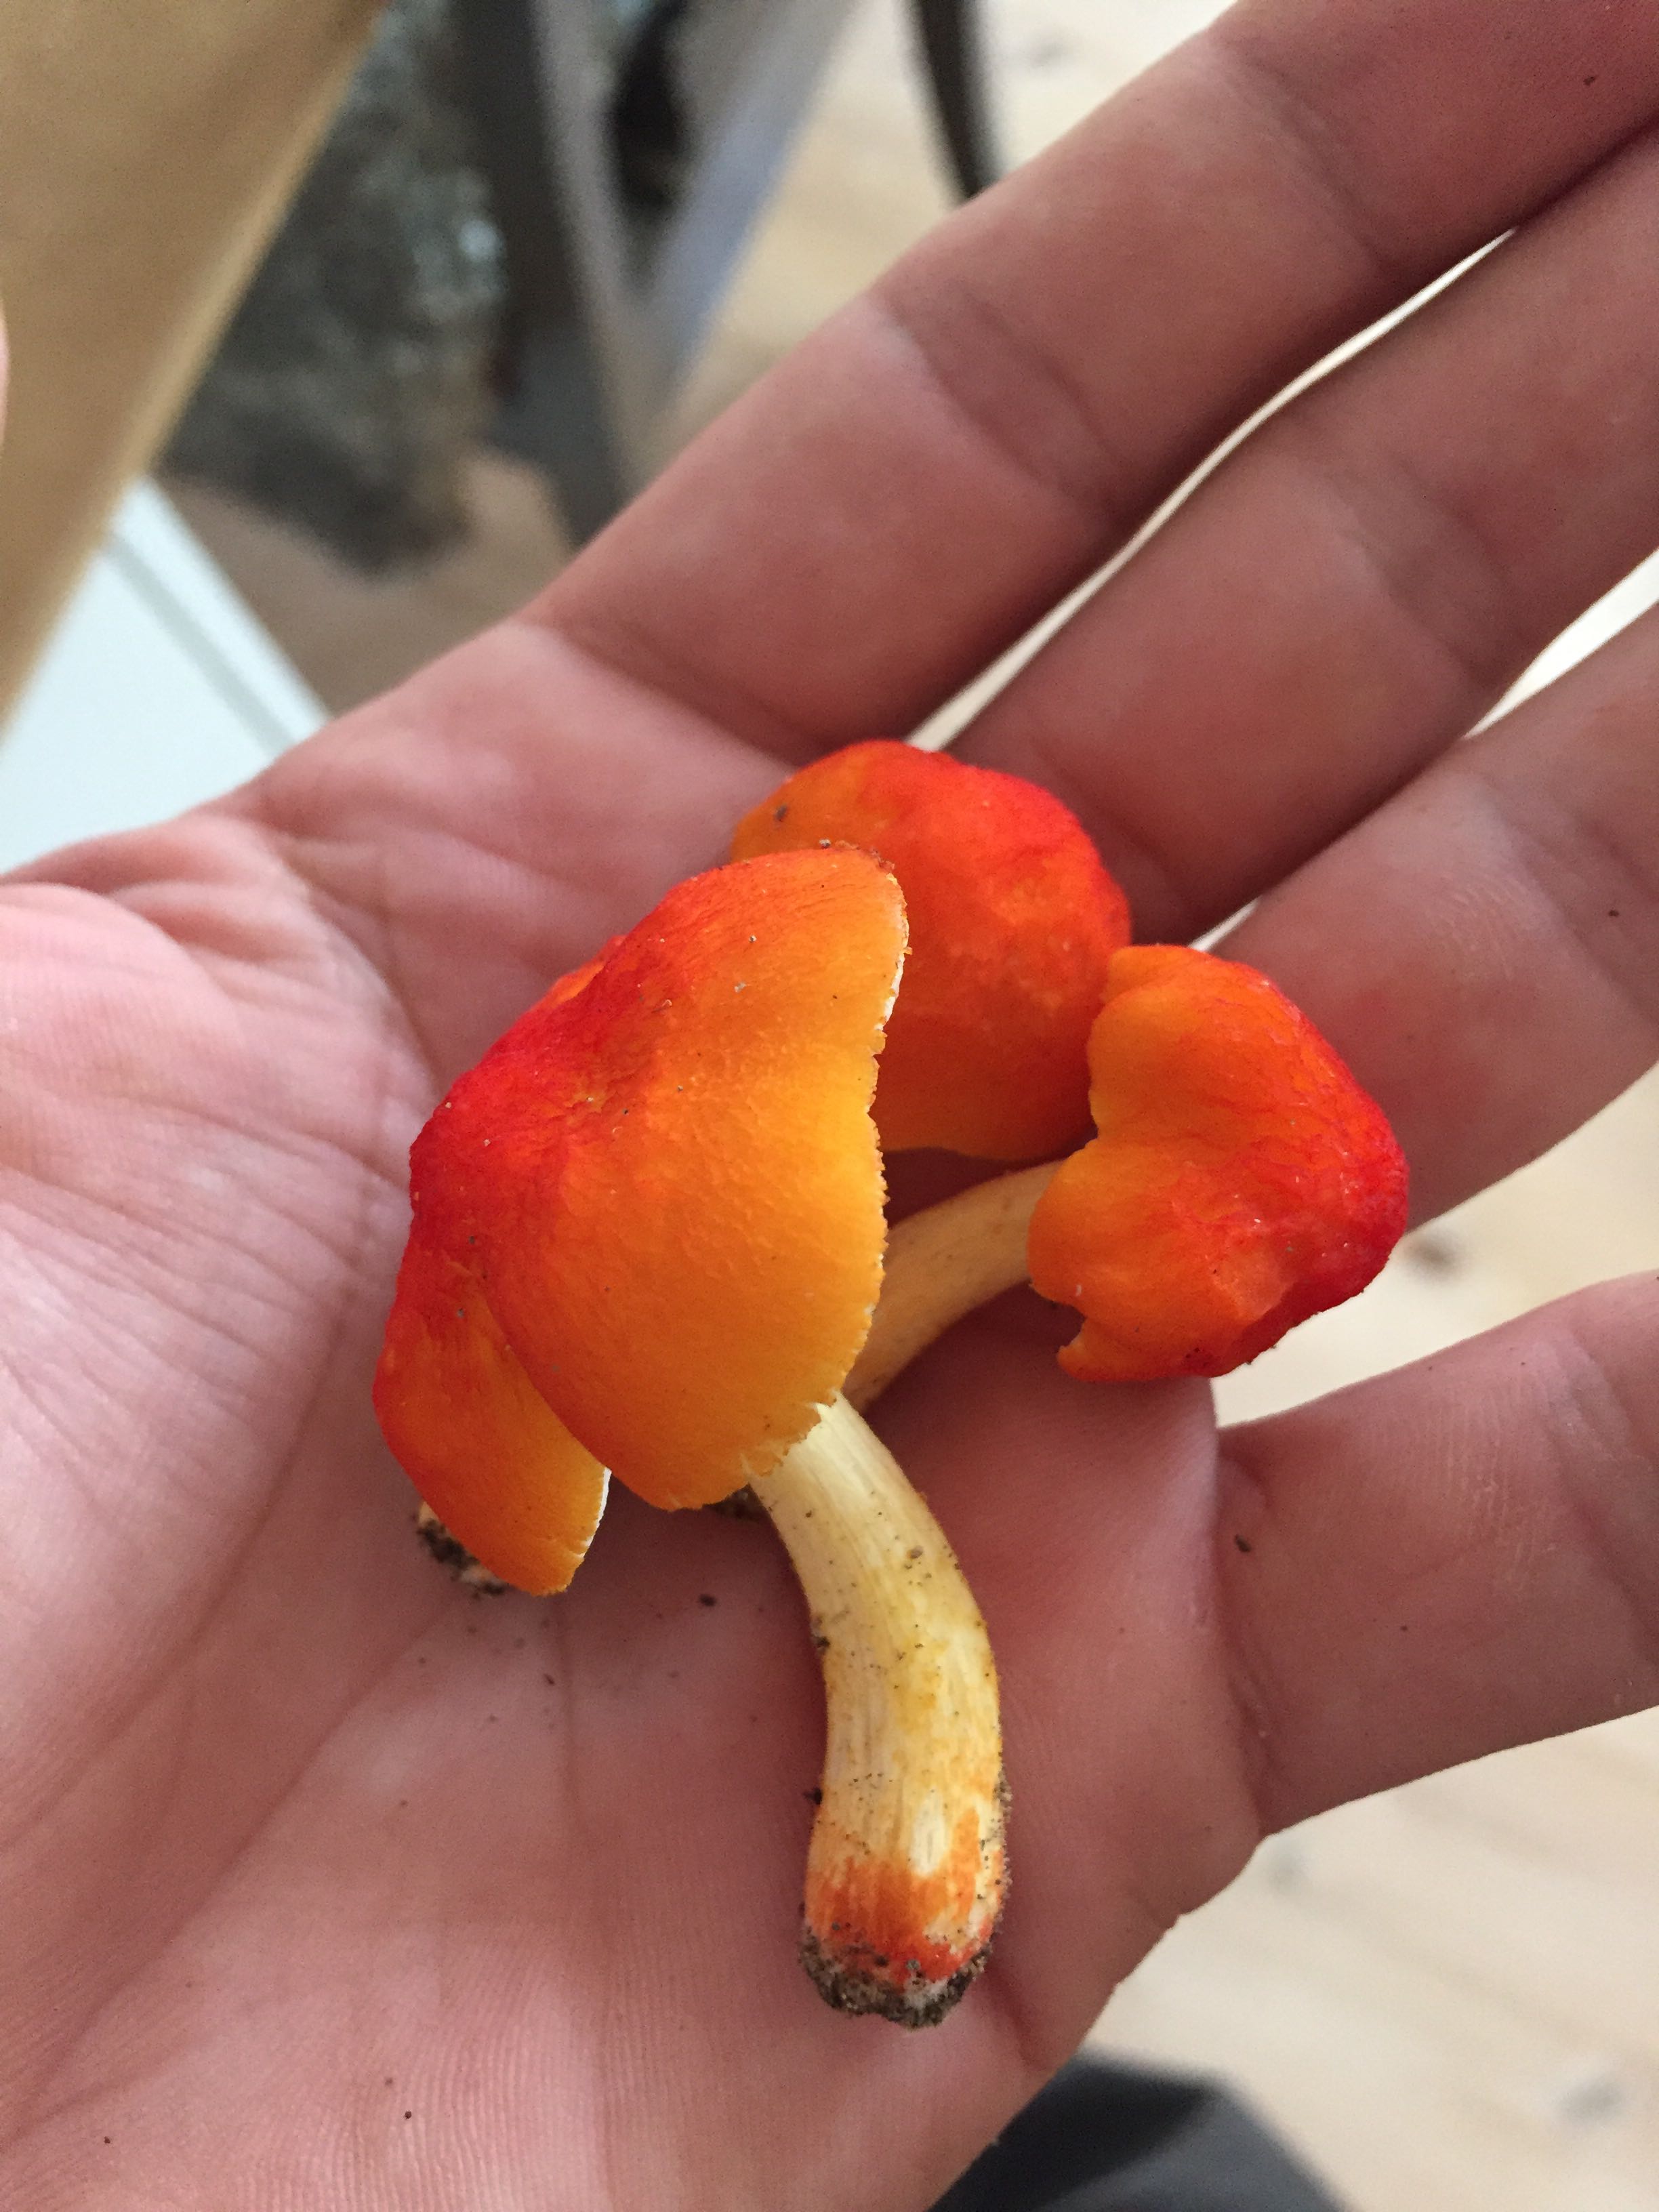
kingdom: Fungi
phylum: Basidiomycota
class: Agaricomycetes
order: Agaricales
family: Pluteaceae
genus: Pluteus
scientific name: Pluteus aurantiorugosus
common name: skarlagen-skærmhat
